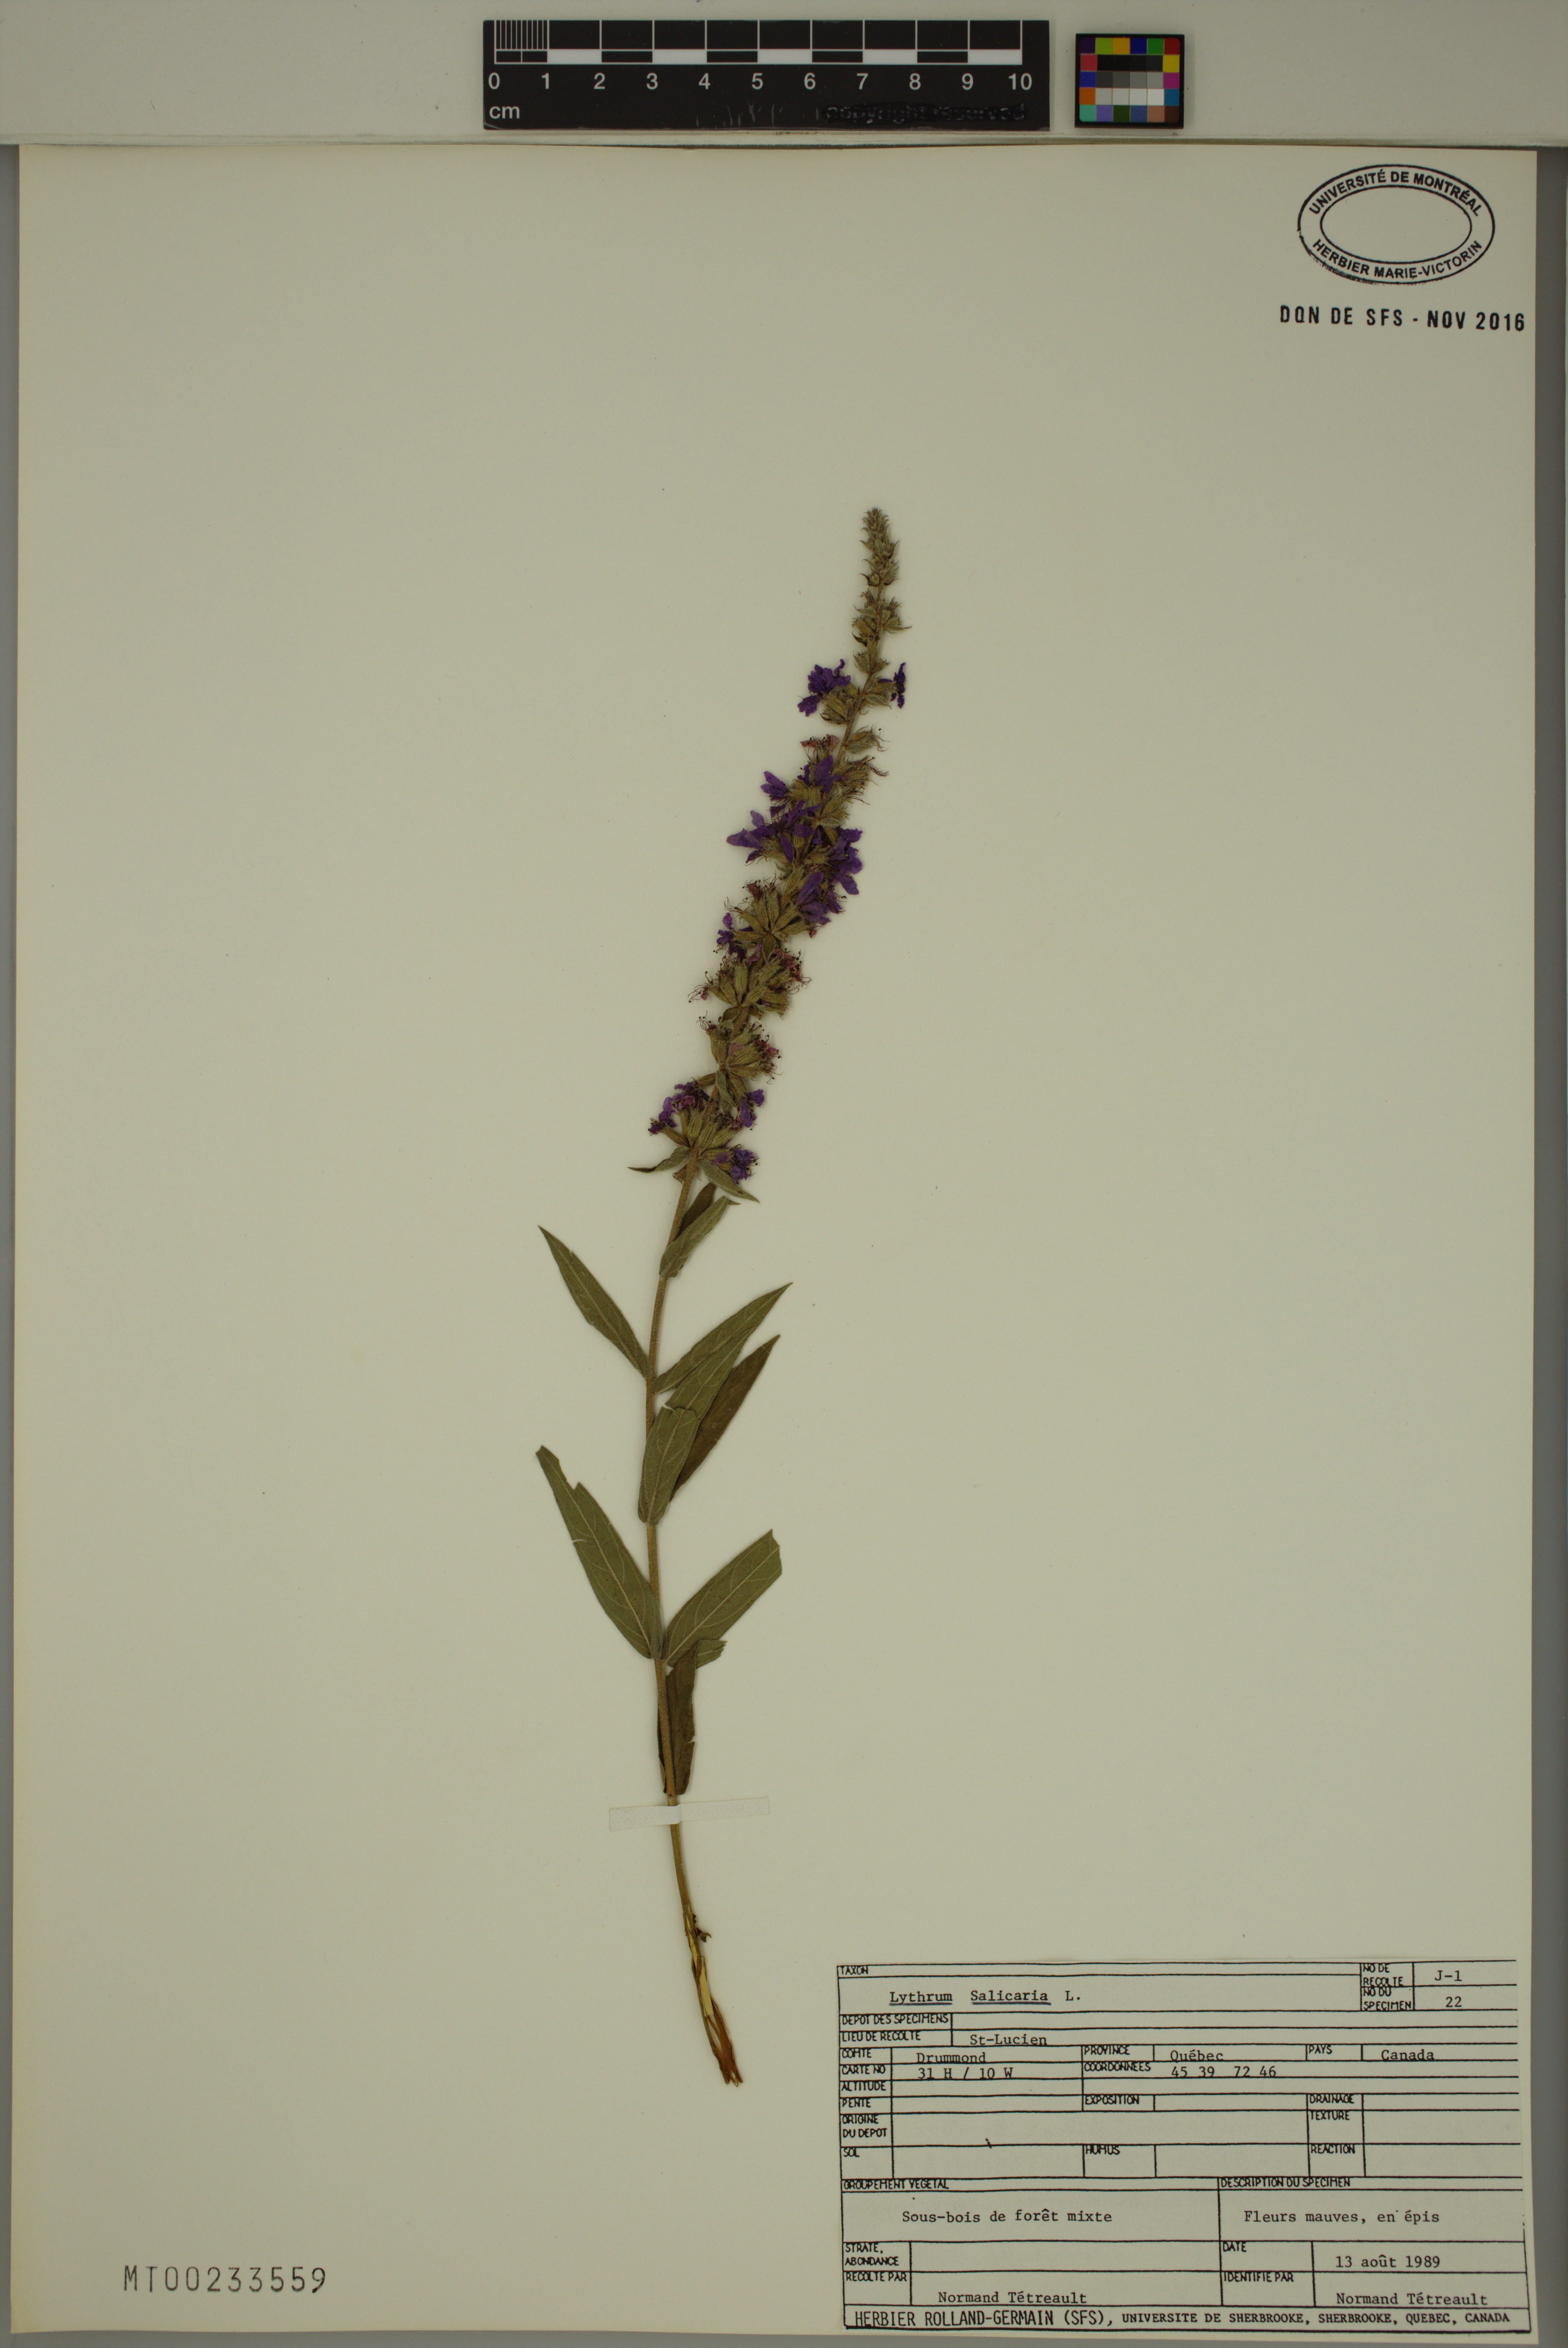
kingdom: Plantae
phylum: Tracheophyta
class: Magnoliopsida
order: Myrtales
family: Lythraceae
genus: Lythrum
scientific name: Lythrum salicaria
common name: Purple loosestrife
